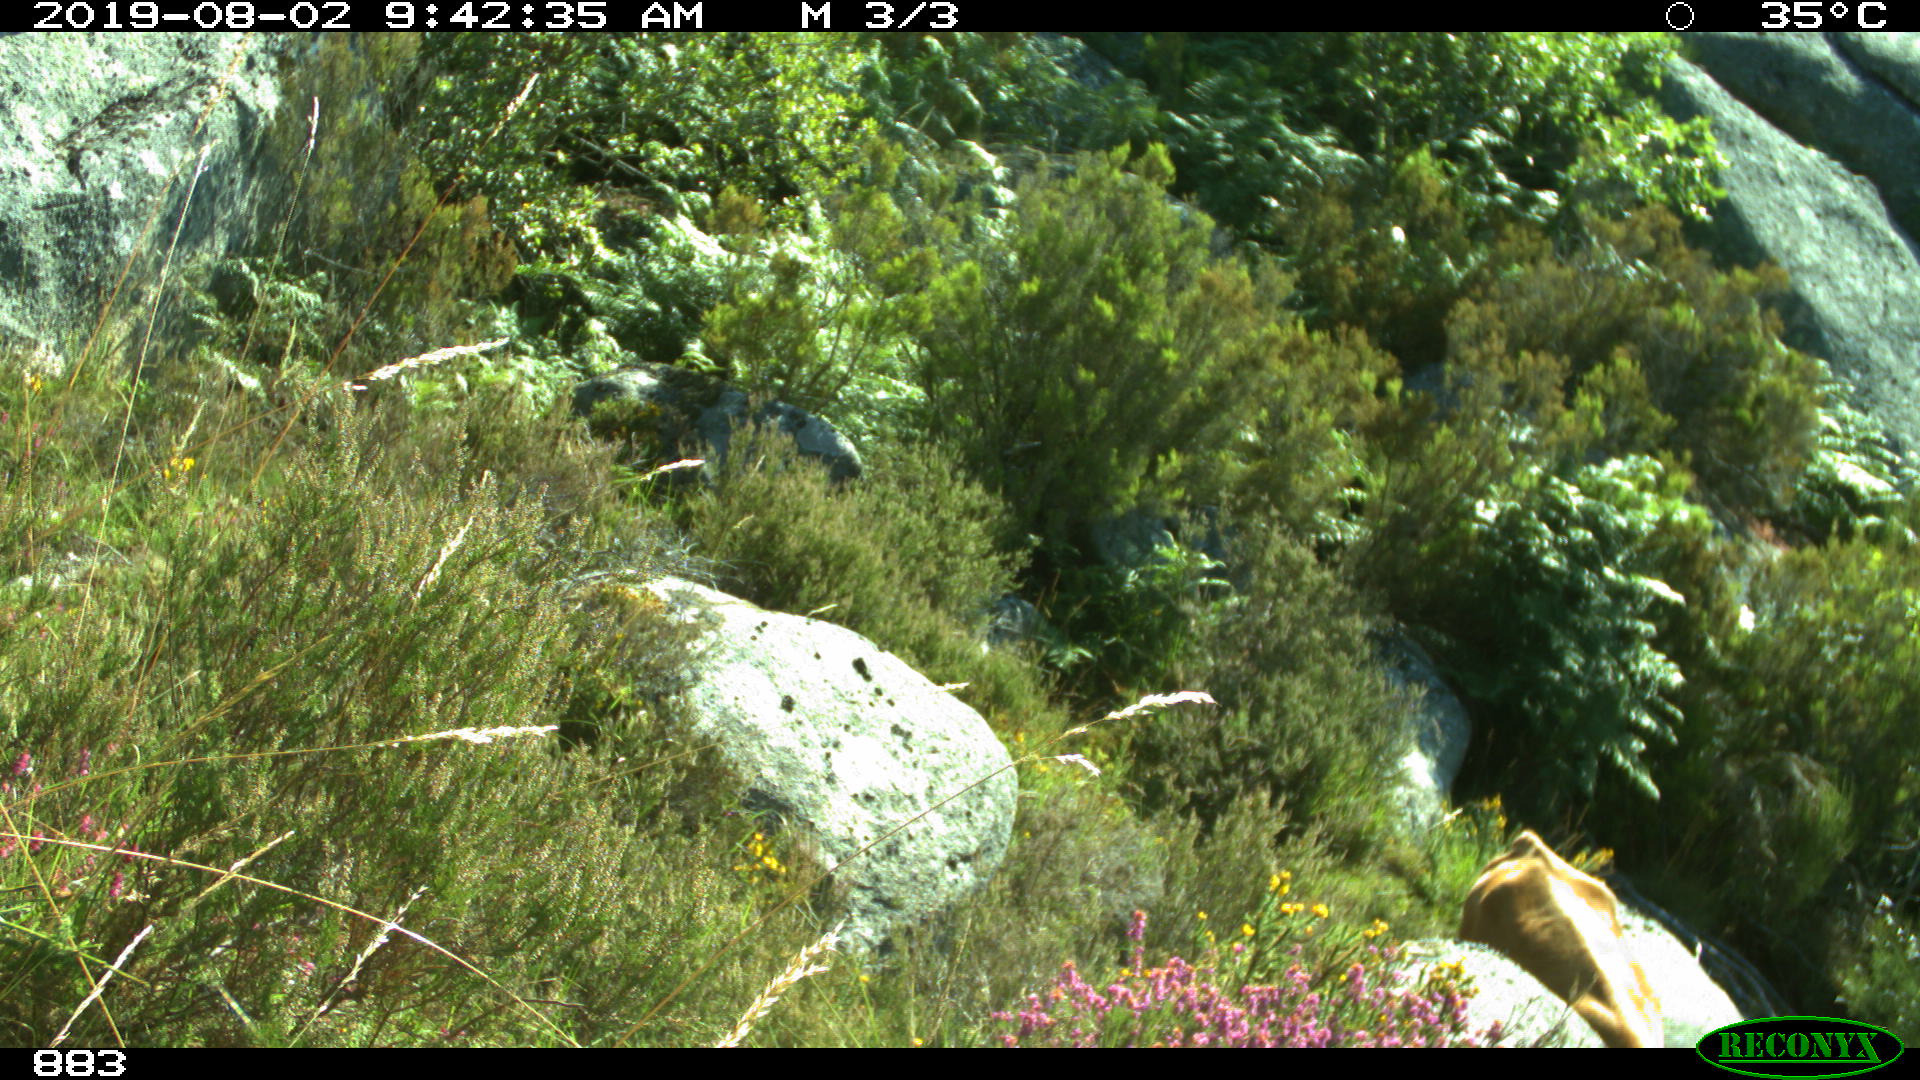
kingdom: Animalia
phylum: Chordata
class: Mammalia
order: Artiodactyla
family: Bovidae
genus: Bos
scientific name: Bos taurus
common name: Domesticated cattle
